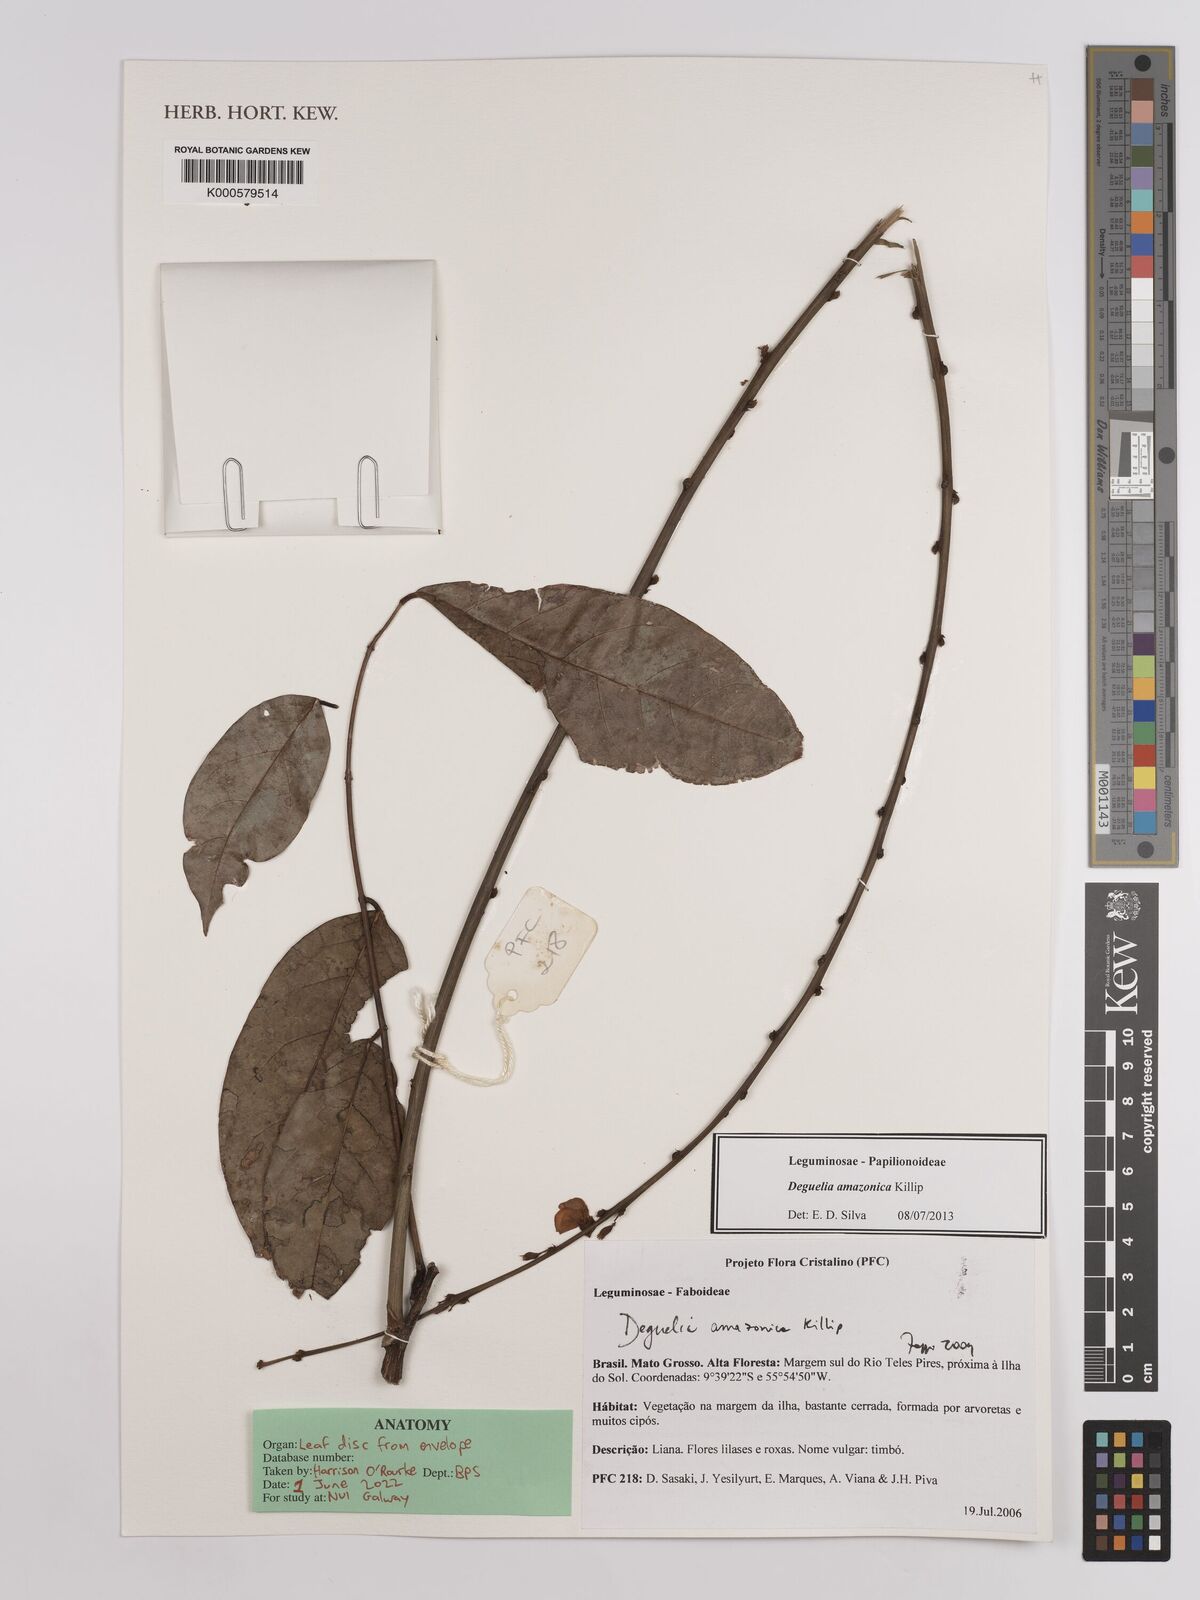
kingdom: Plantae
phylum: Tracheophyta
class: Magnoliopsida
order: Fabales
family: Fabaceae
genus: Deguelia
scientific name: Deguelia amazonica
